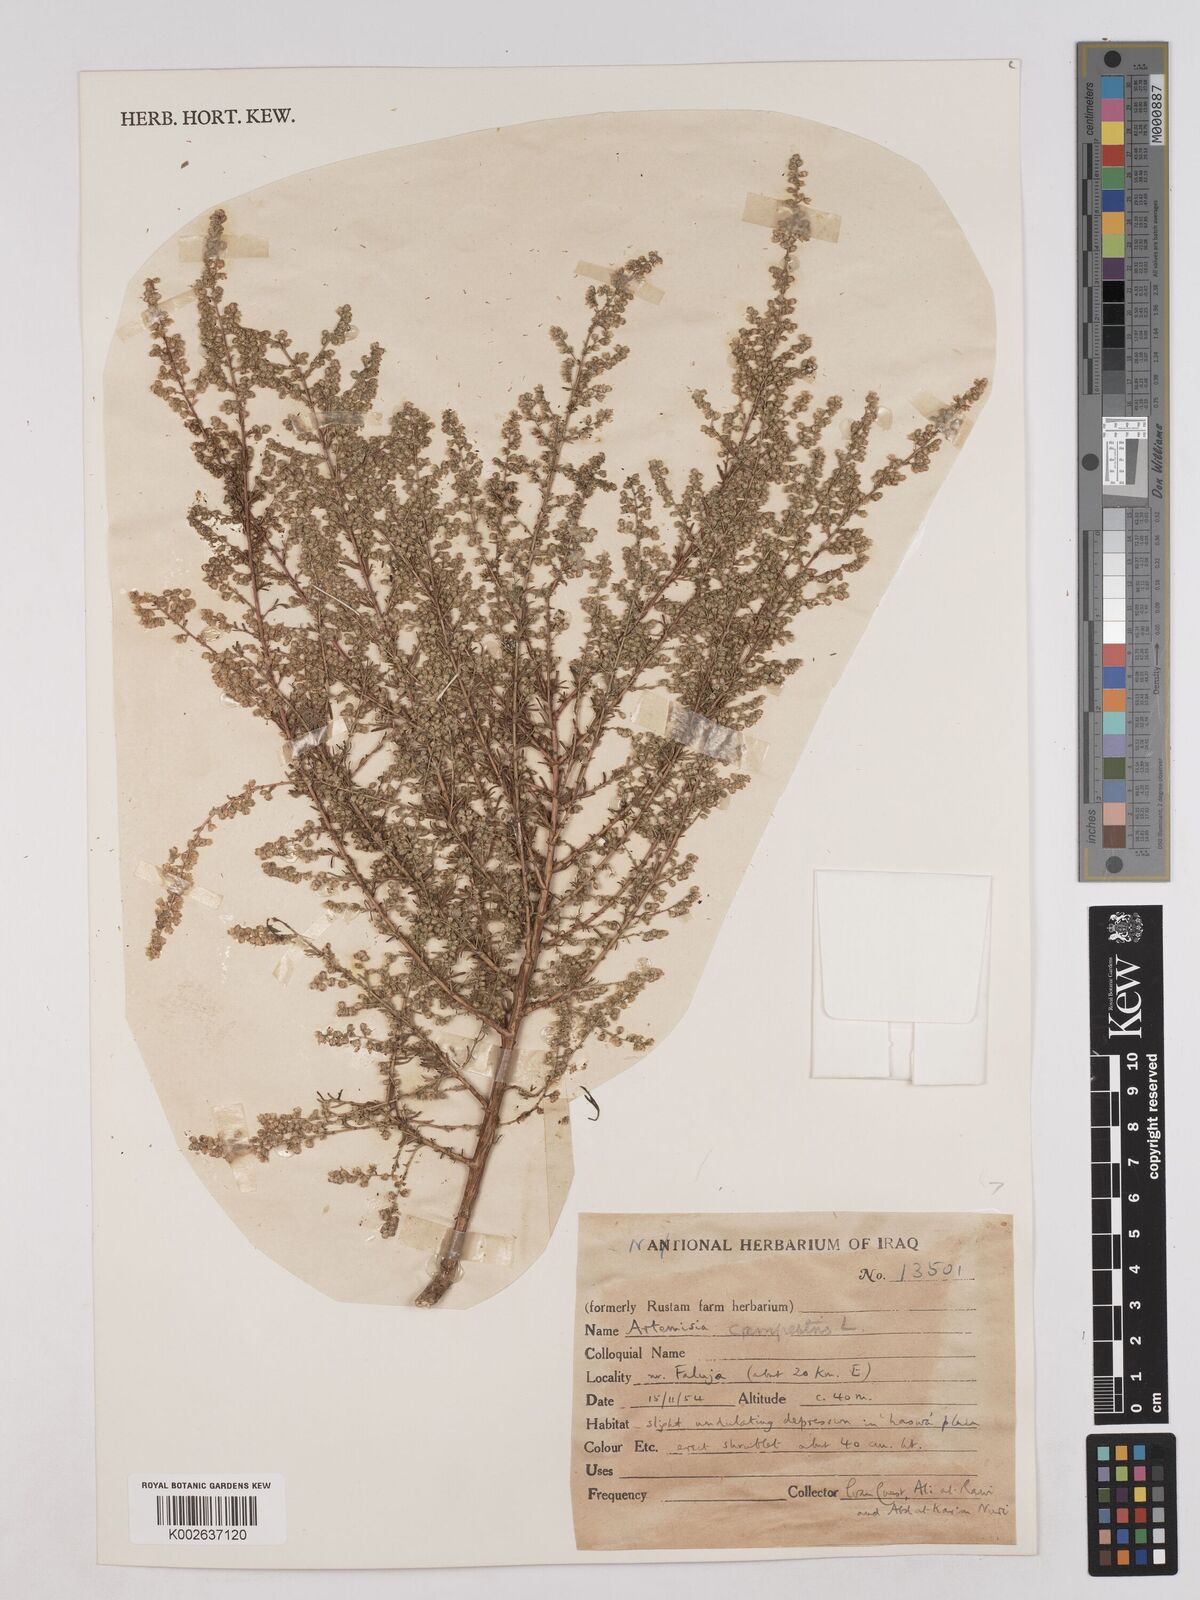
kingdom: Plantae
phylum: Tracheophyta
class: Magnoliopsida
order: Asterales
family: Asteraceae
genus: Artemisia
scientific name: Artemisia campestris
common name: Field wormwood
